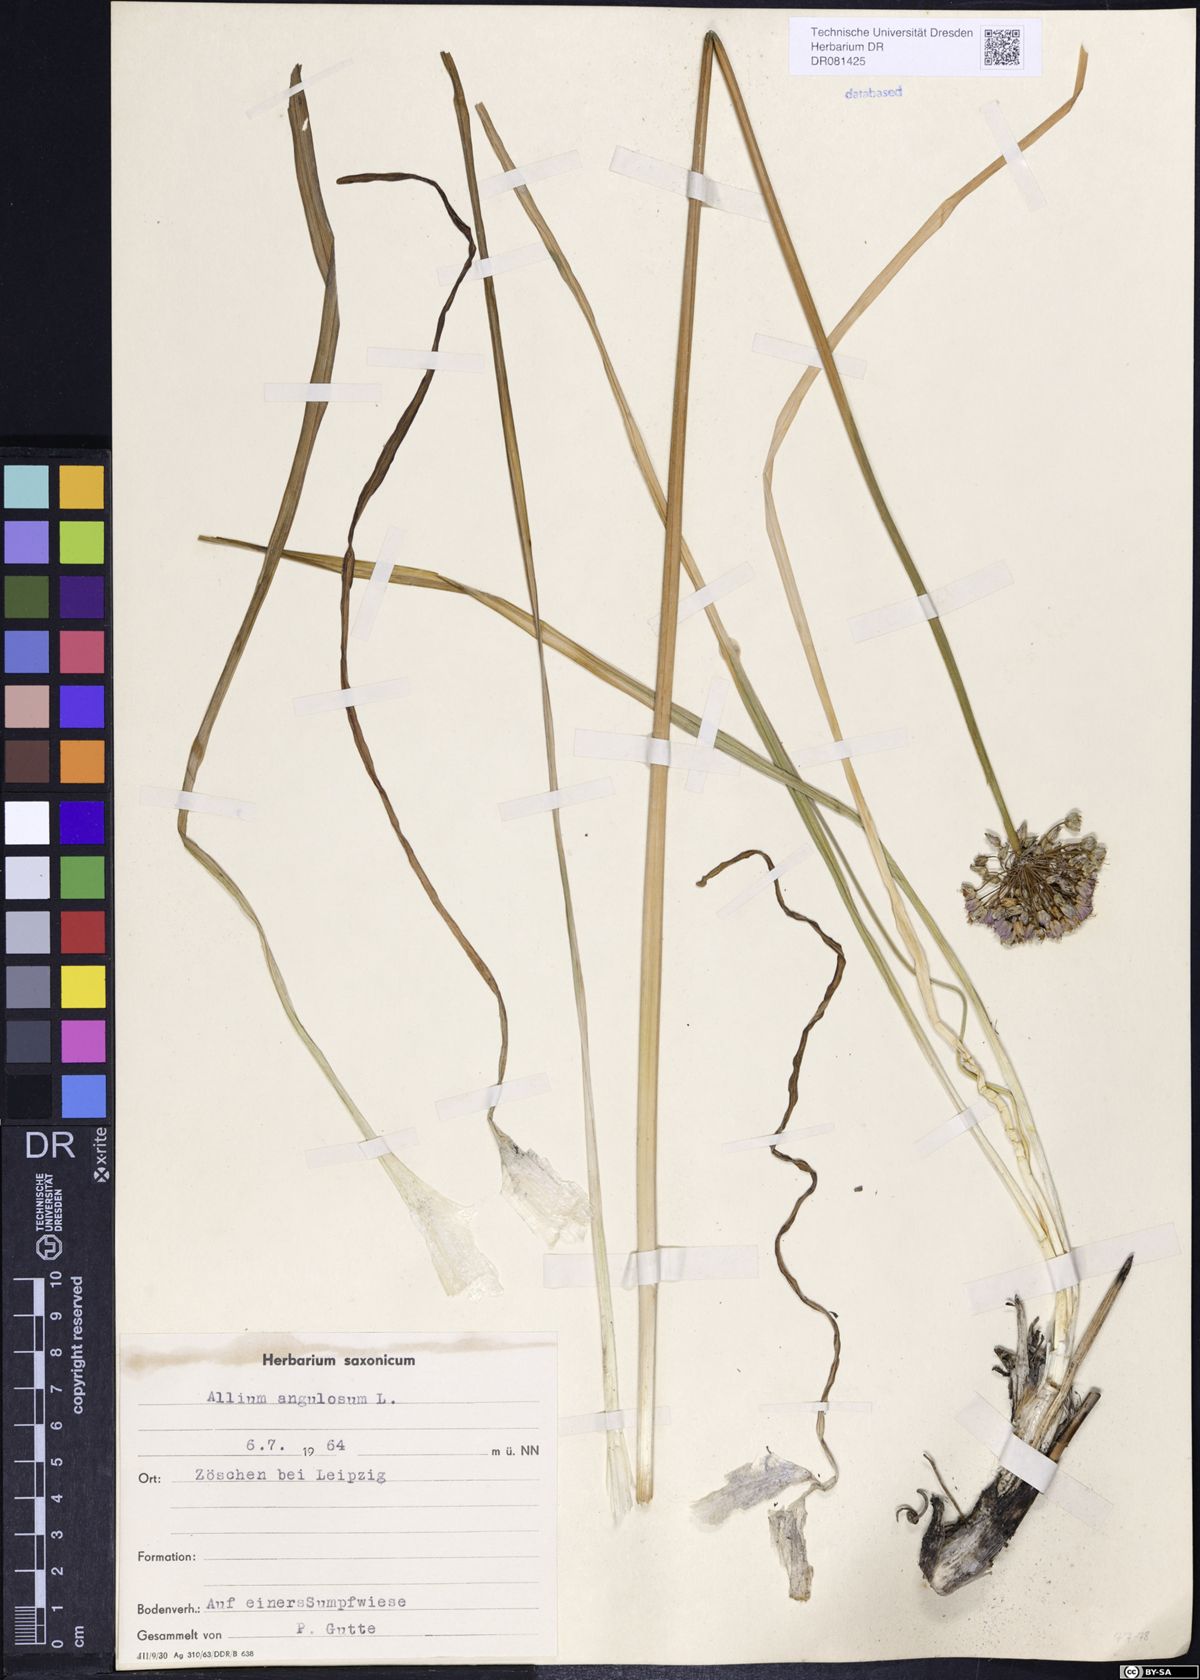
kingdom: Plantae
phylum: Tracheophyta
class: Liliopsida
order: Asparagales
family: Amaryllidaceae
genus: Allium
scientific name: Allium angulosum
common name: Mouse garlic
